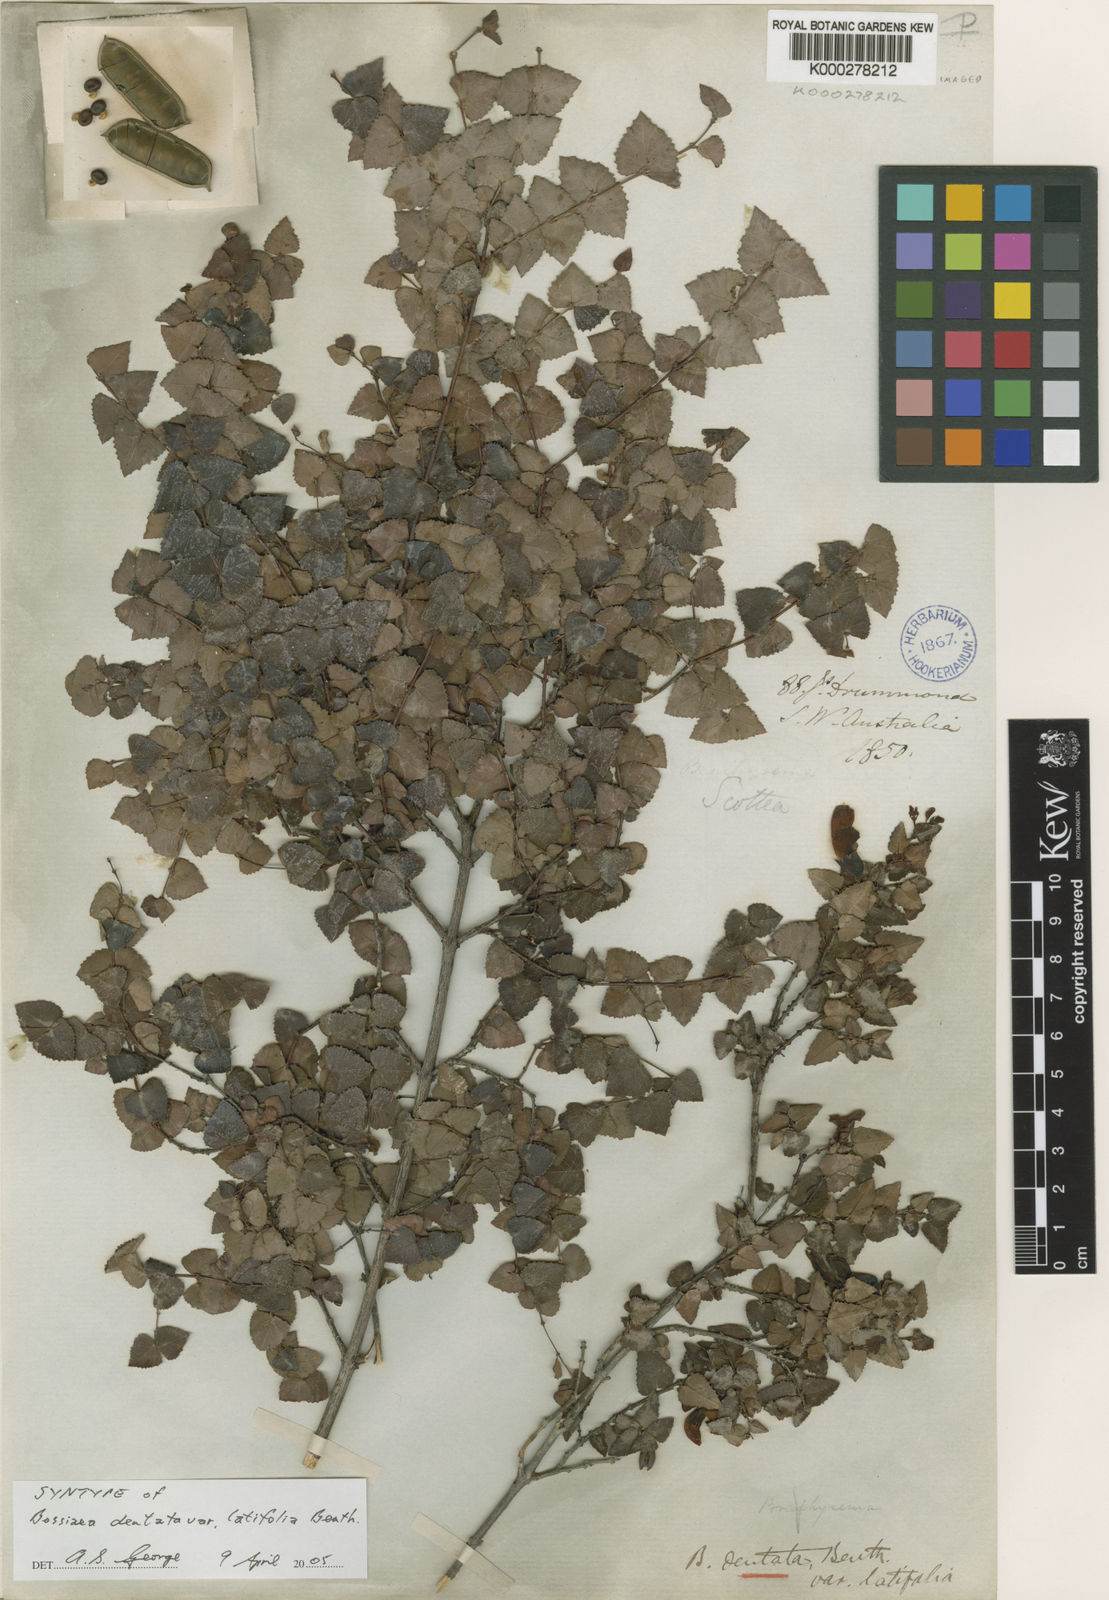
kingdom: Plantae
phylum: Tracheophyta
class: Magnoliopsida
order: Fabales
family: Fabaceae
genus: Bossiaea
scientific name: Bossiaea dentata
